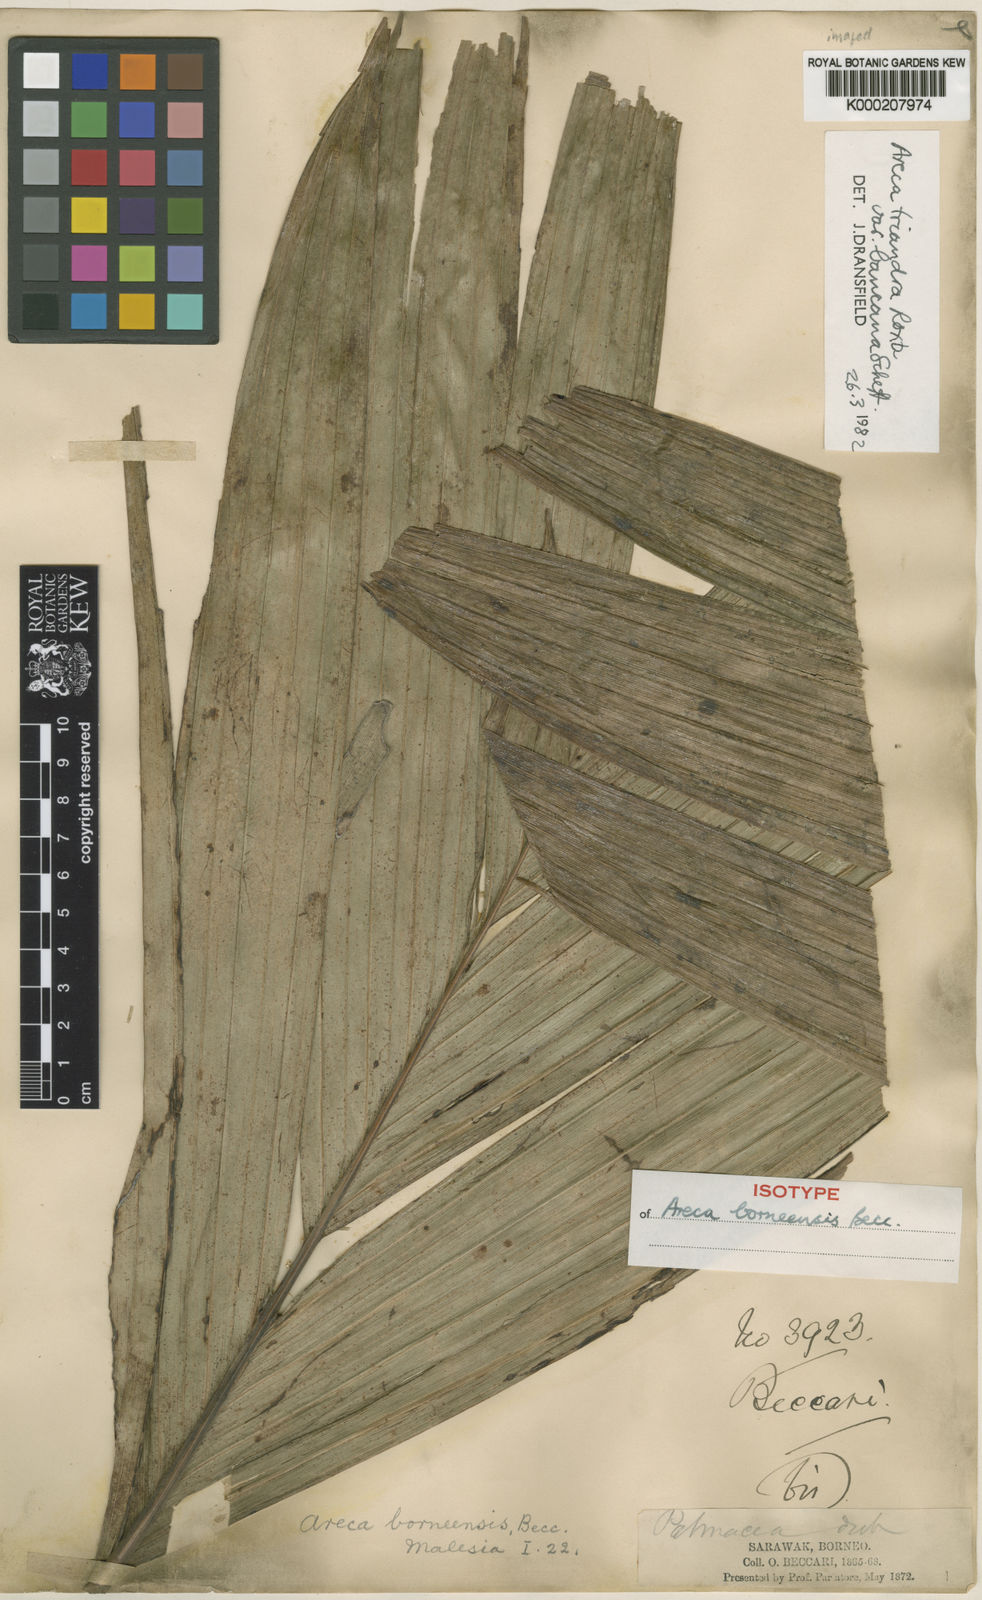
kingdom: Plantae
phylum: Tracheophyta
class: Liliopsida
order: Arecales
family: Arecaceae
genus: Areca
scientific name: Areca triandra
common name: Australian areca palm
